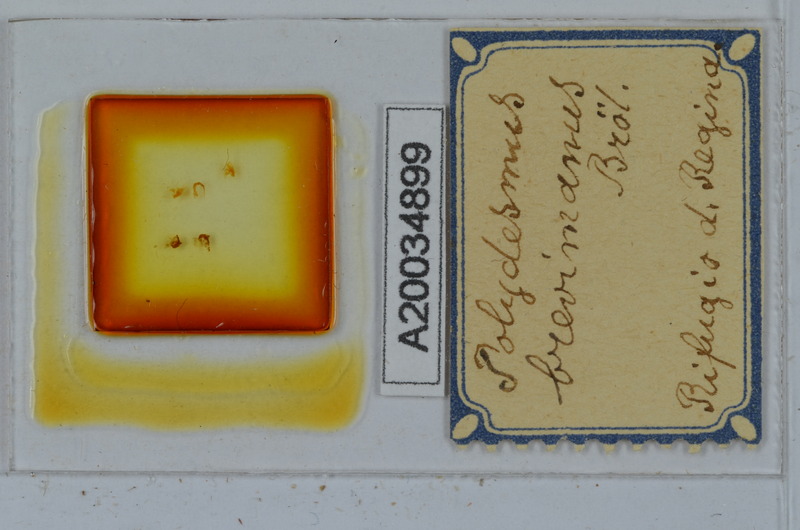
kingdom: Animalia
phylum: Arthropoda
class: Diplopoda
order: Polydesmida
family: Polydesmidae
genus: Polydesmus
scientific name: Polydesmus brevimanus
